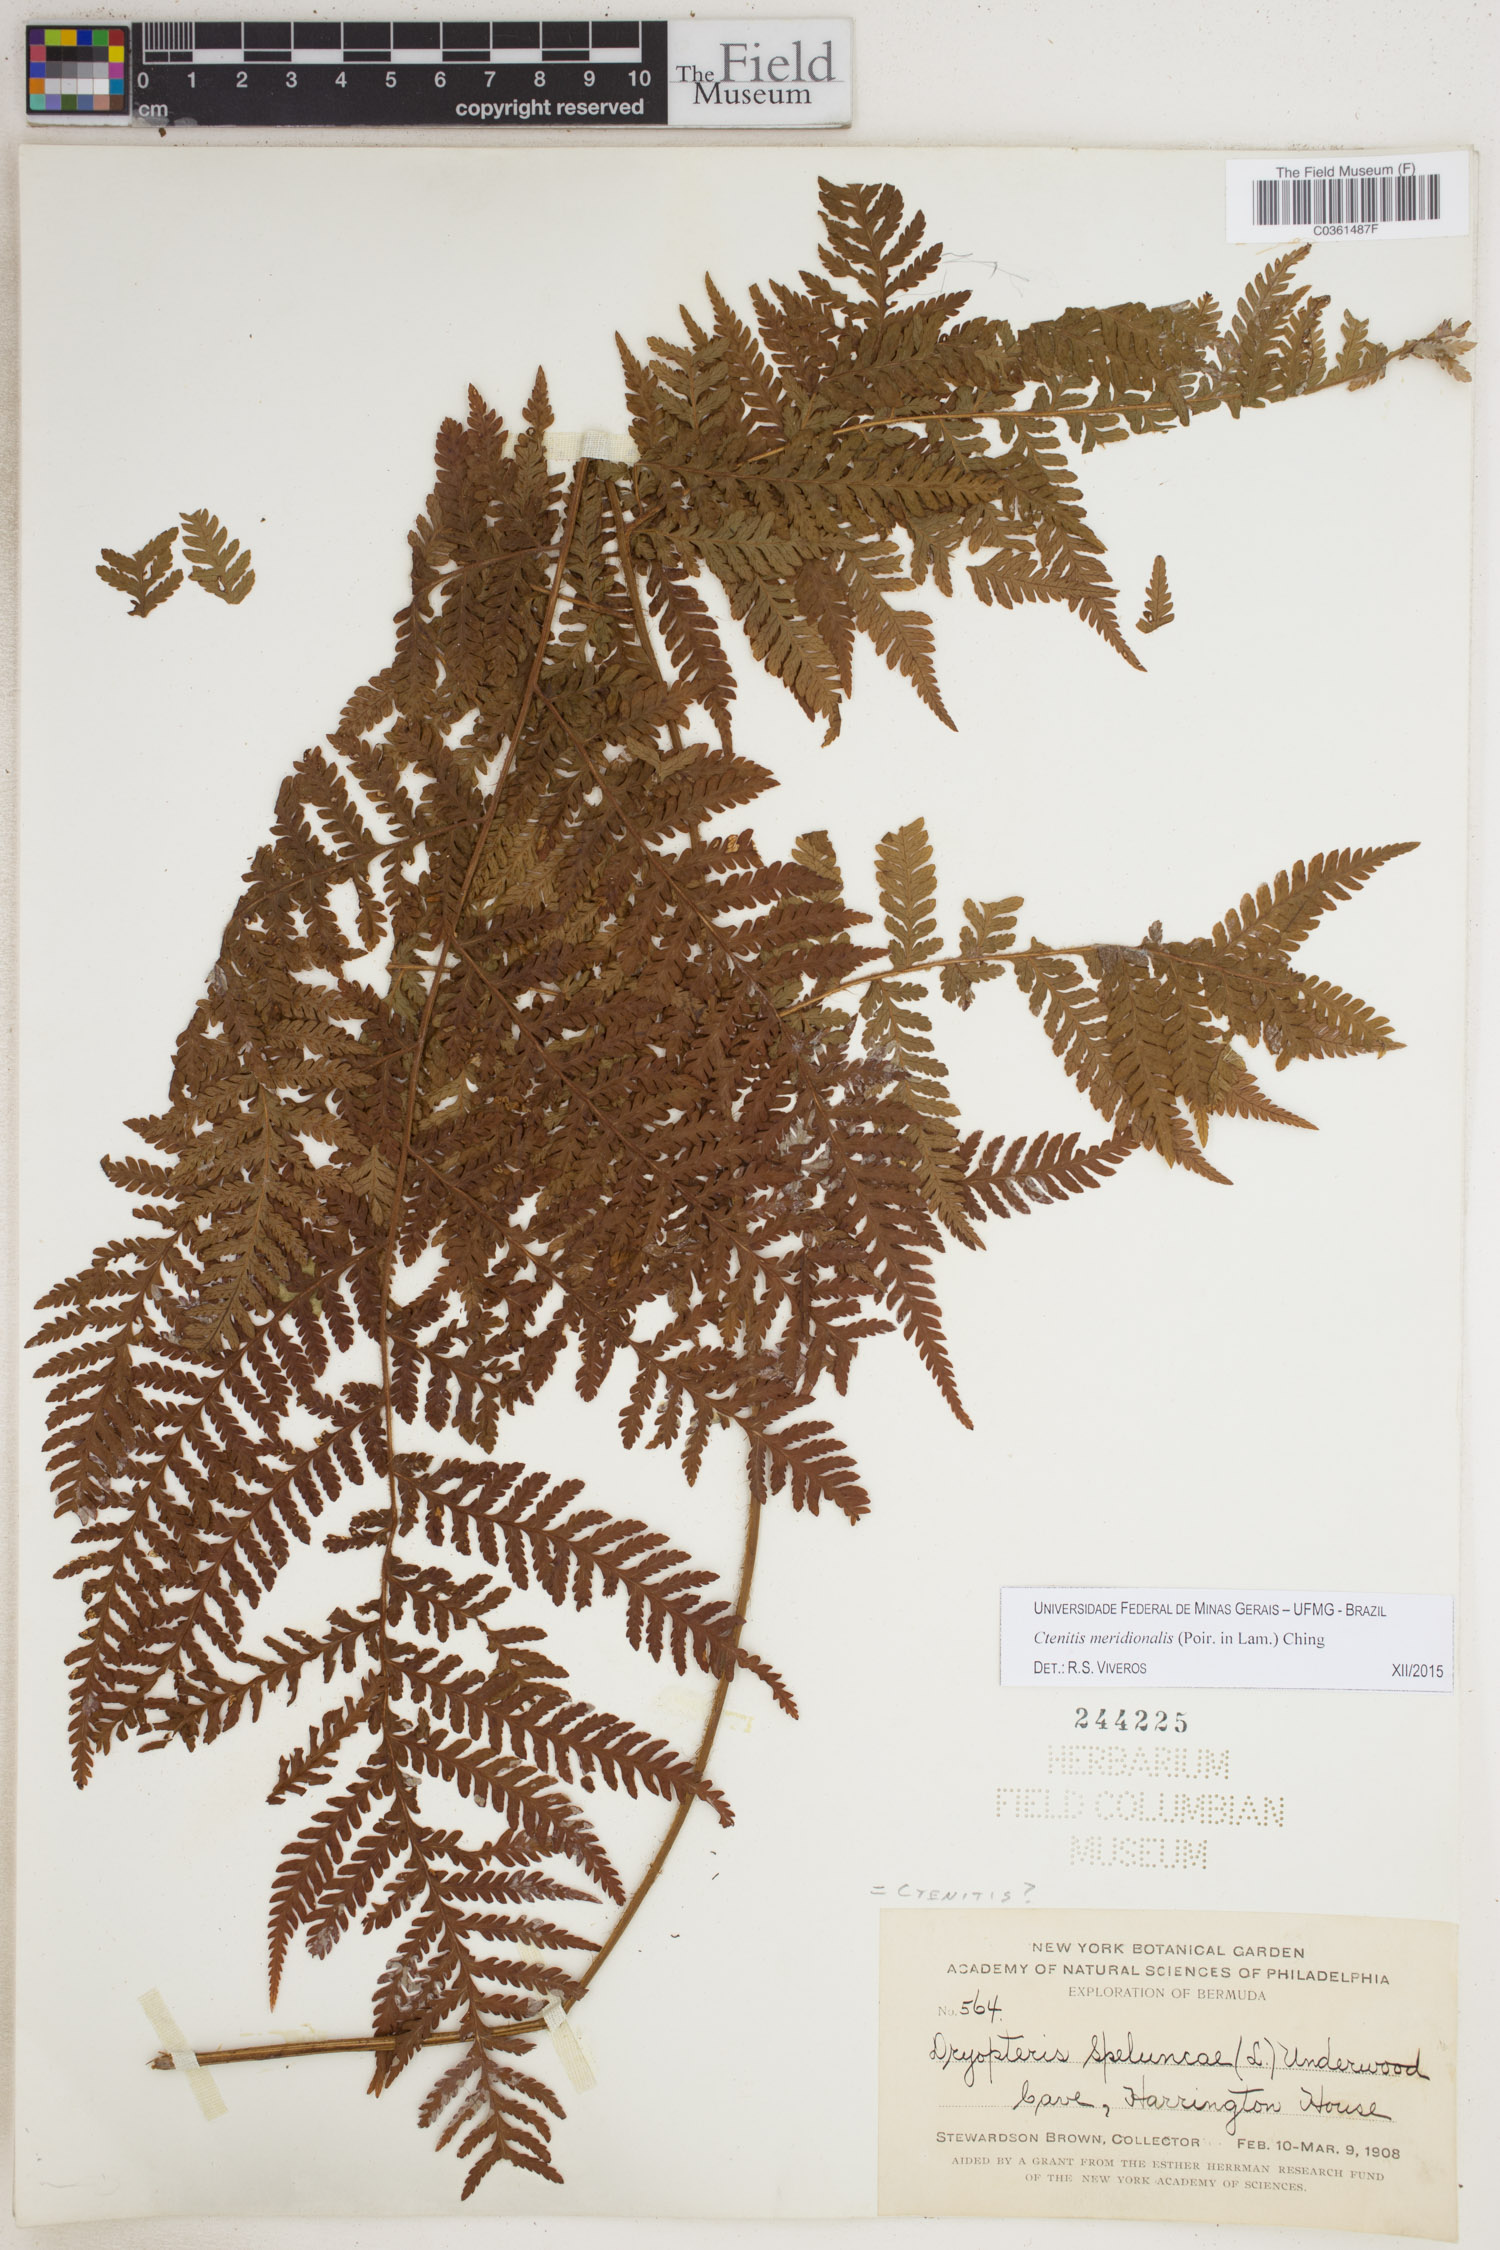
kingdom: Plantae
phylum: Tracheophyta
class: Polypodiopsida
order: Polypodiales
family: Dryopteridaceae
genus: Ctenitis
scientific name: Ctenitis meridionalis
